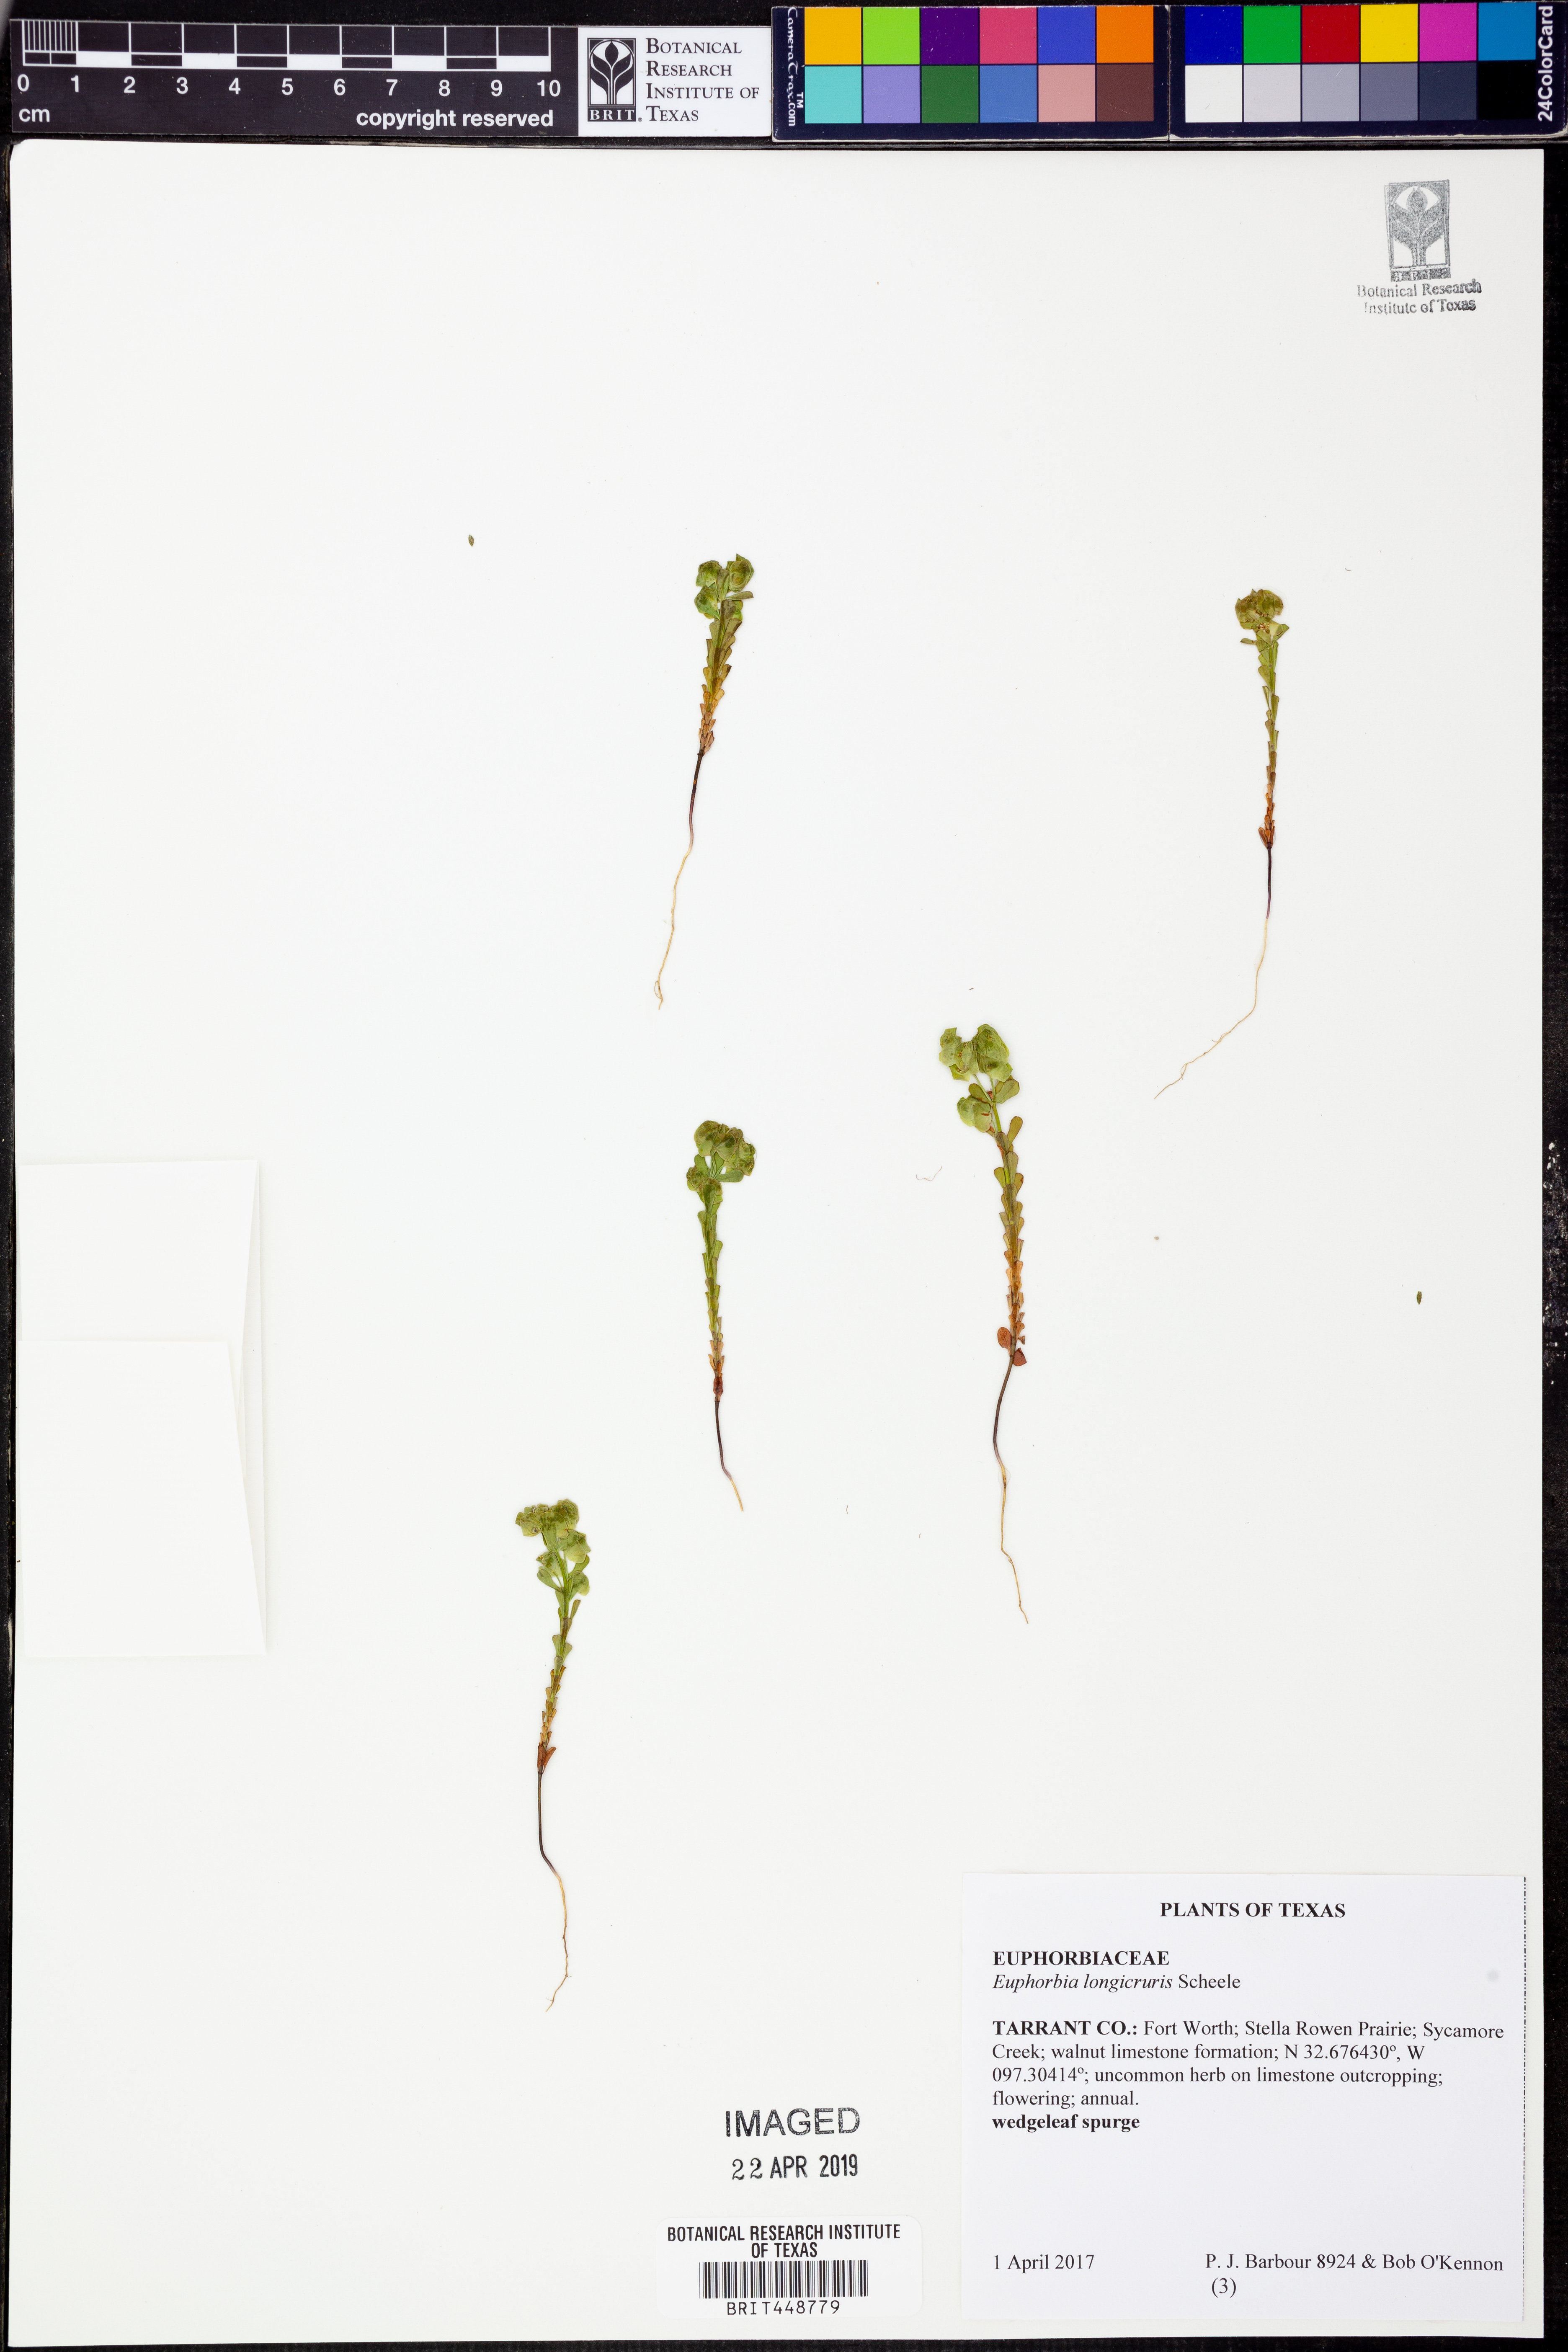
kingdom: Plantae
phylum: Tracheophyta
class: Magnoliopsida
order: Malpighiales
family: Euphorbiaceae
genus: Euphorbia
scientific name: Euphorbia longicruris
